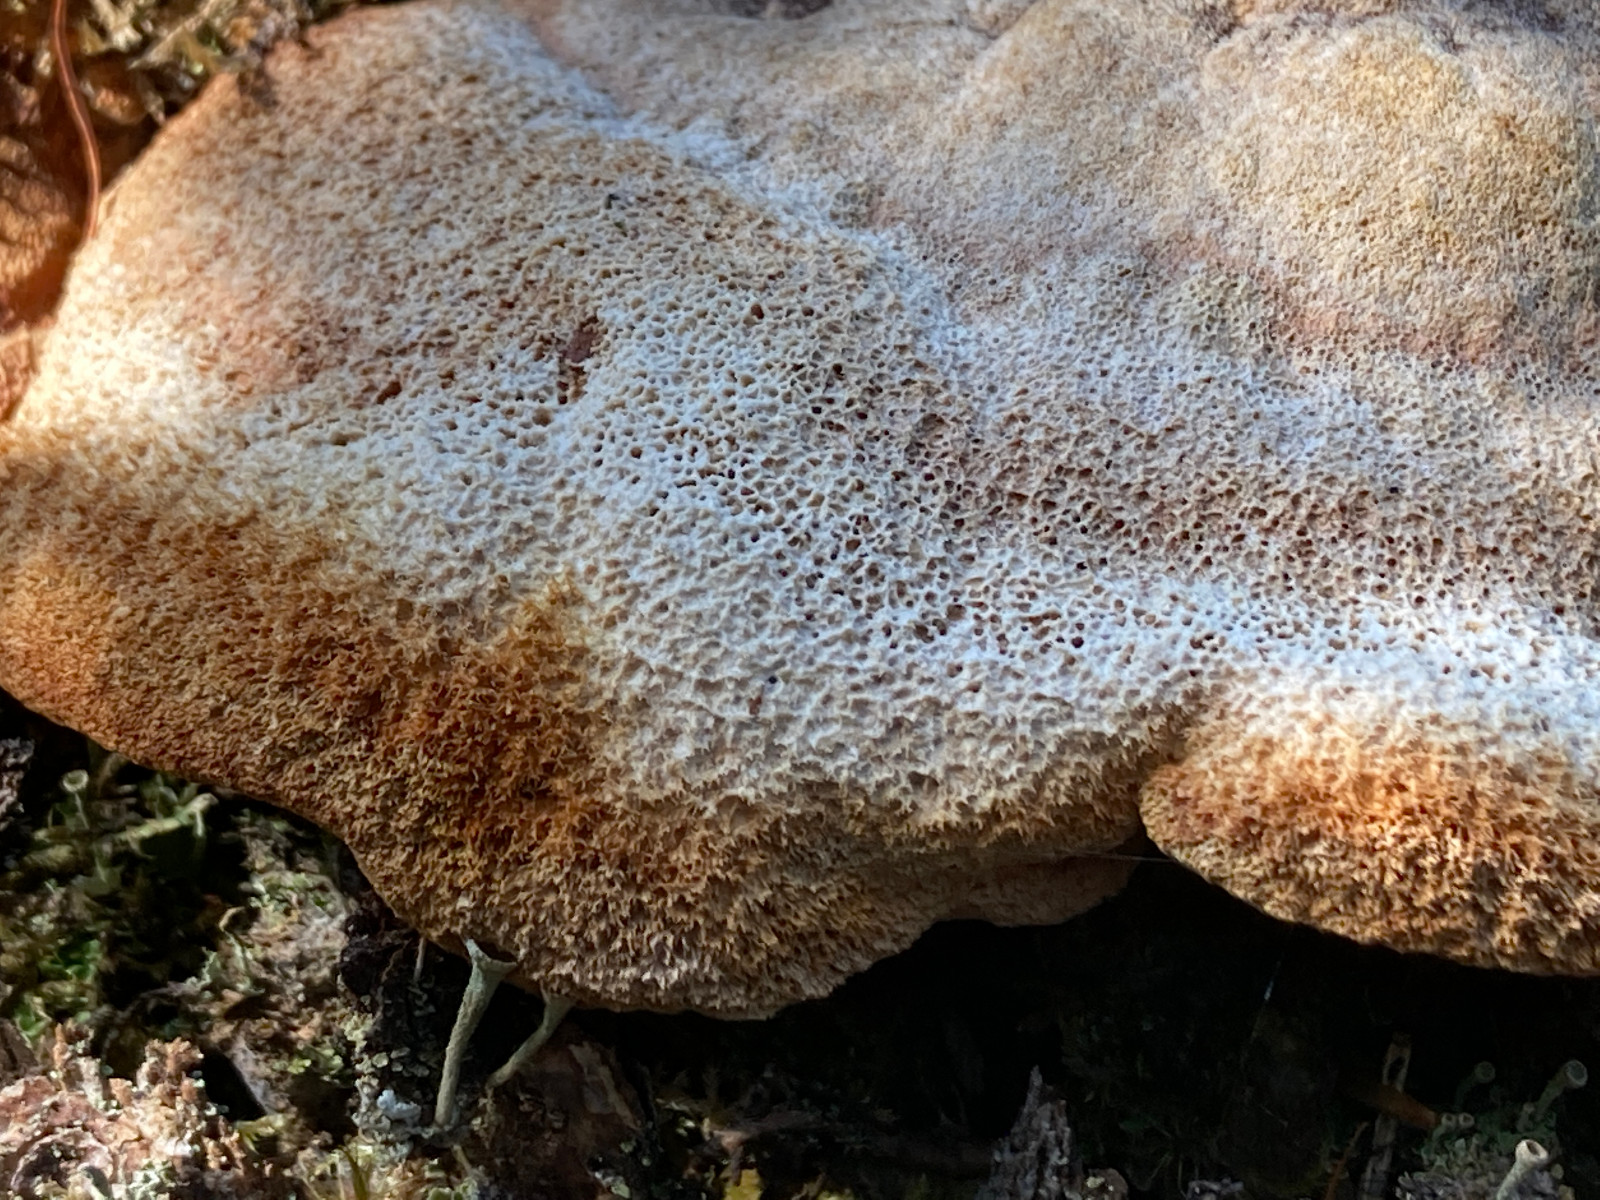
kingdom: Fungi
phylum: Basidiomycota
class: Agaricomycetes
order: Gloeophyllales
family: Gloeophyllaceae
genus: Gloeophyllum
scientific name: Gloeophyllum odoratum
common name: duftende korkhat
